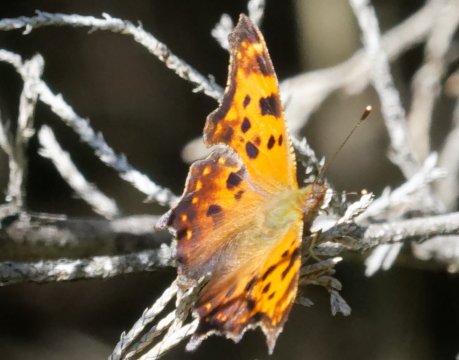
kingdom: Animalia
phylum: Arthropoda
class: Insecta
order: Lepidoptera
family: Nymphalidae
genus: Polygonia
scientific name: Polygonia comma
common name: Eastern Comma
